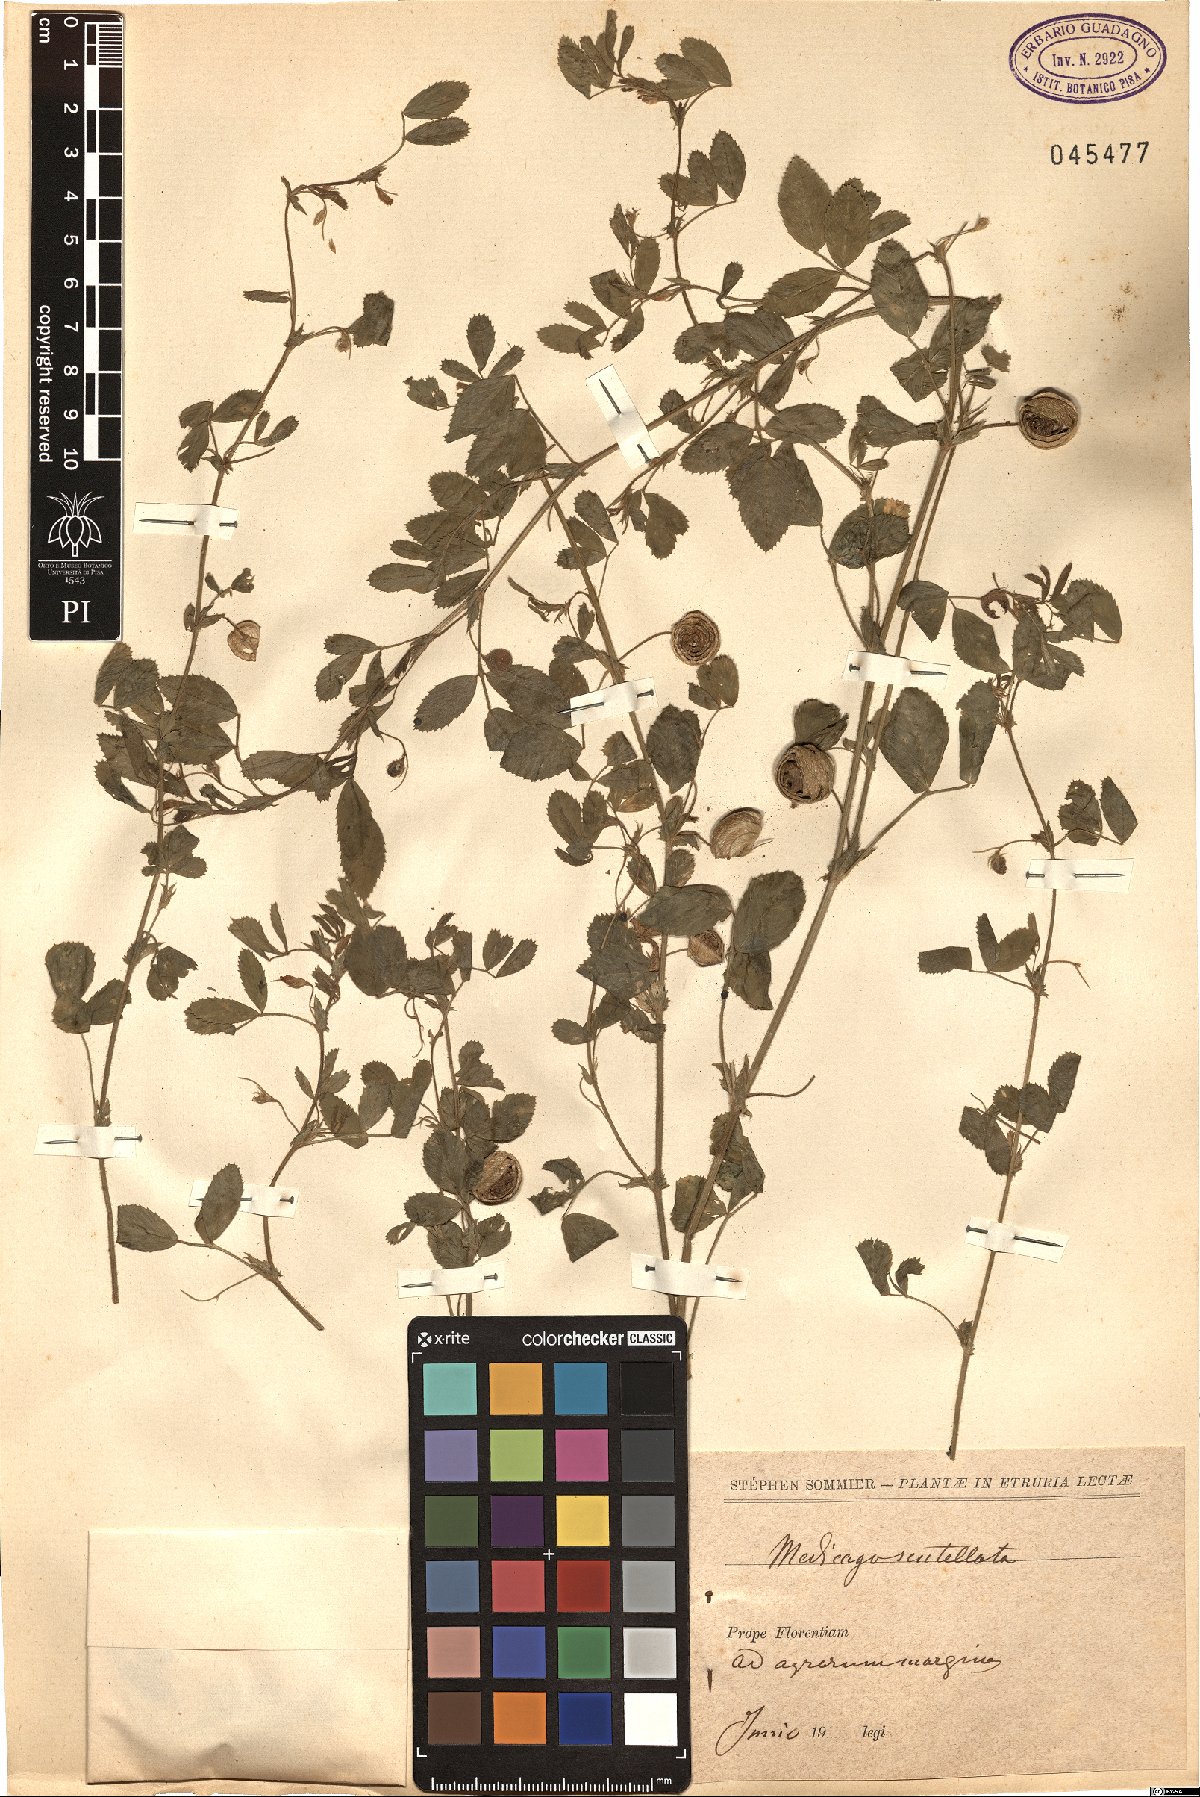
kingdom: Plantae
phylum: Tracheophyta
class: Magnoliopsida
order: Fabales
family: Fabaceae
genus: Medicago
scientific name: Medicago scutellata
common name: Snail medick
